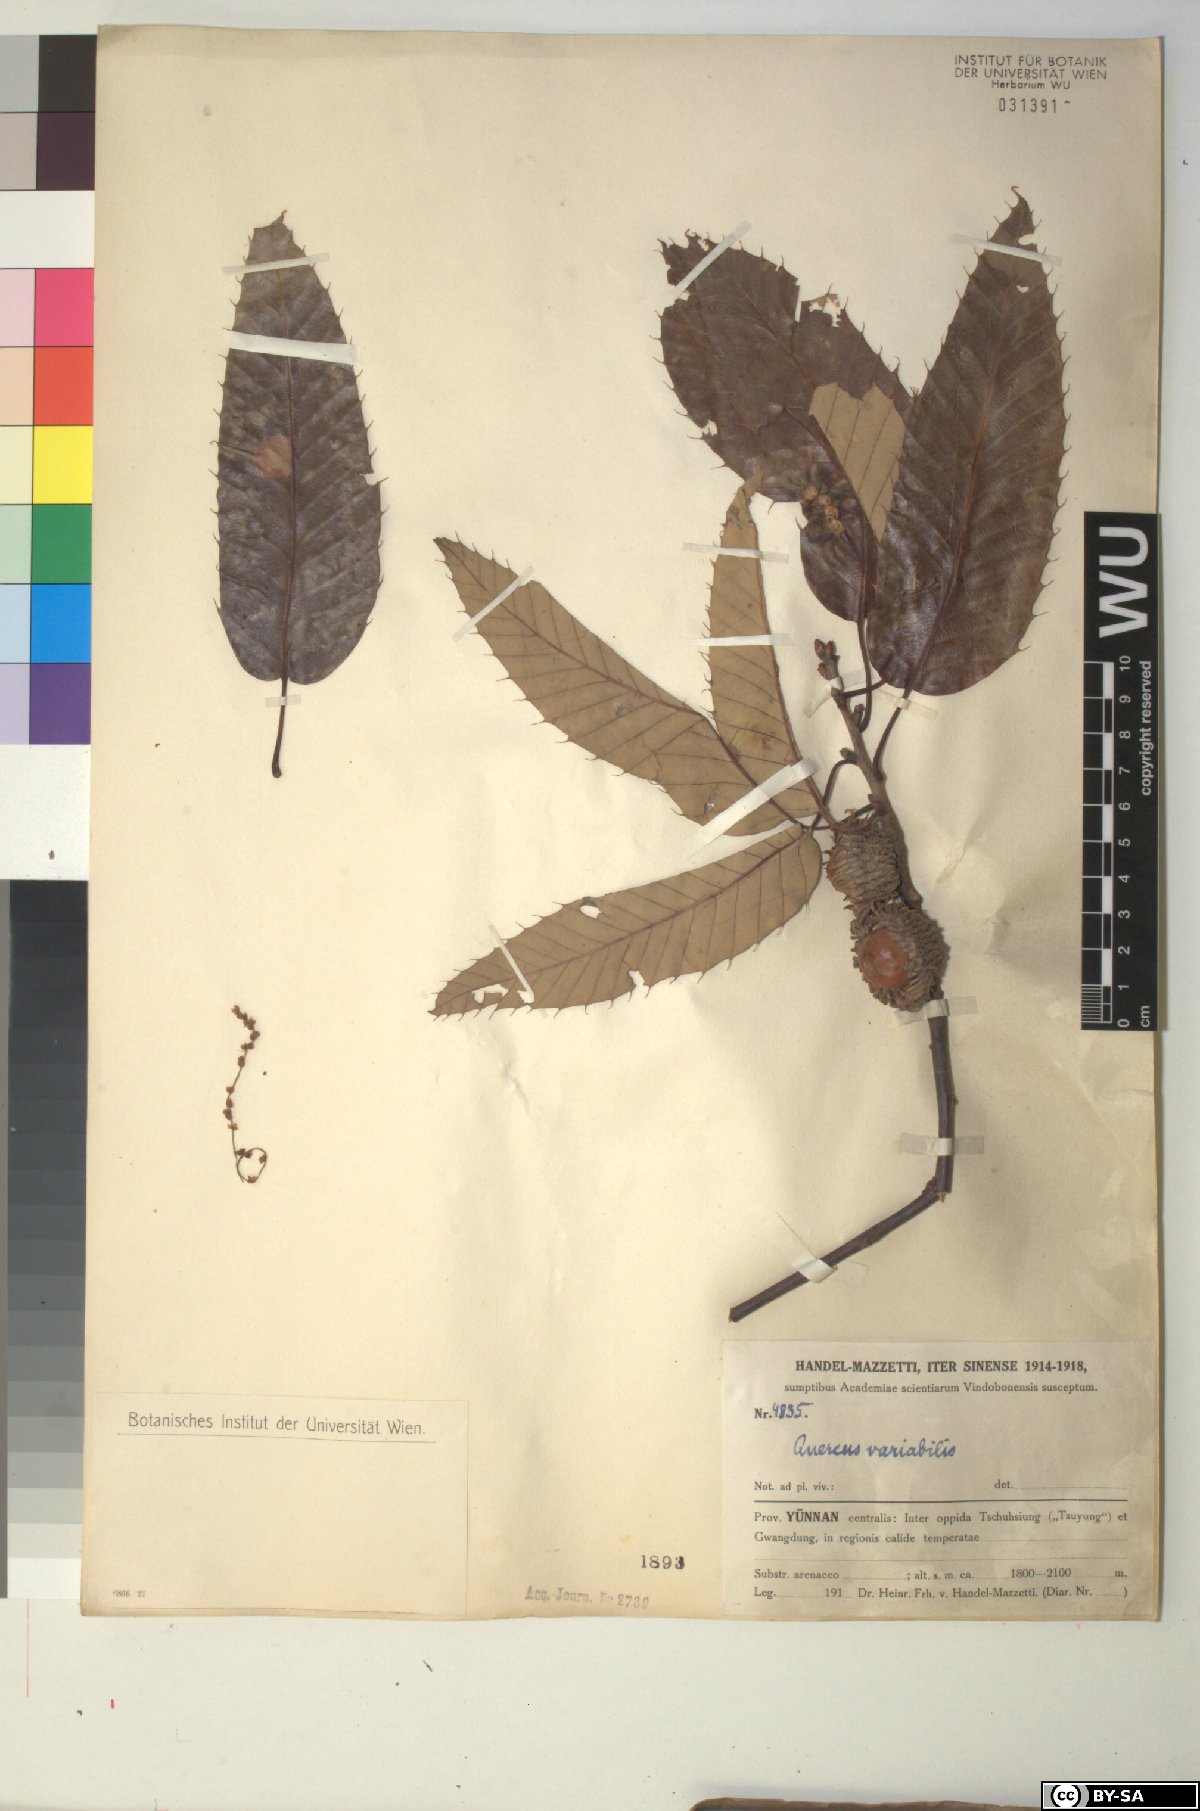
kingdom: Plantae
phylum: Tracheophyta
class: Magnoliopsida
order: Fagales
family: Fagaceae
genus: Quercus
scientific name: Quercus variabilis
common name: Chinese cork oak
